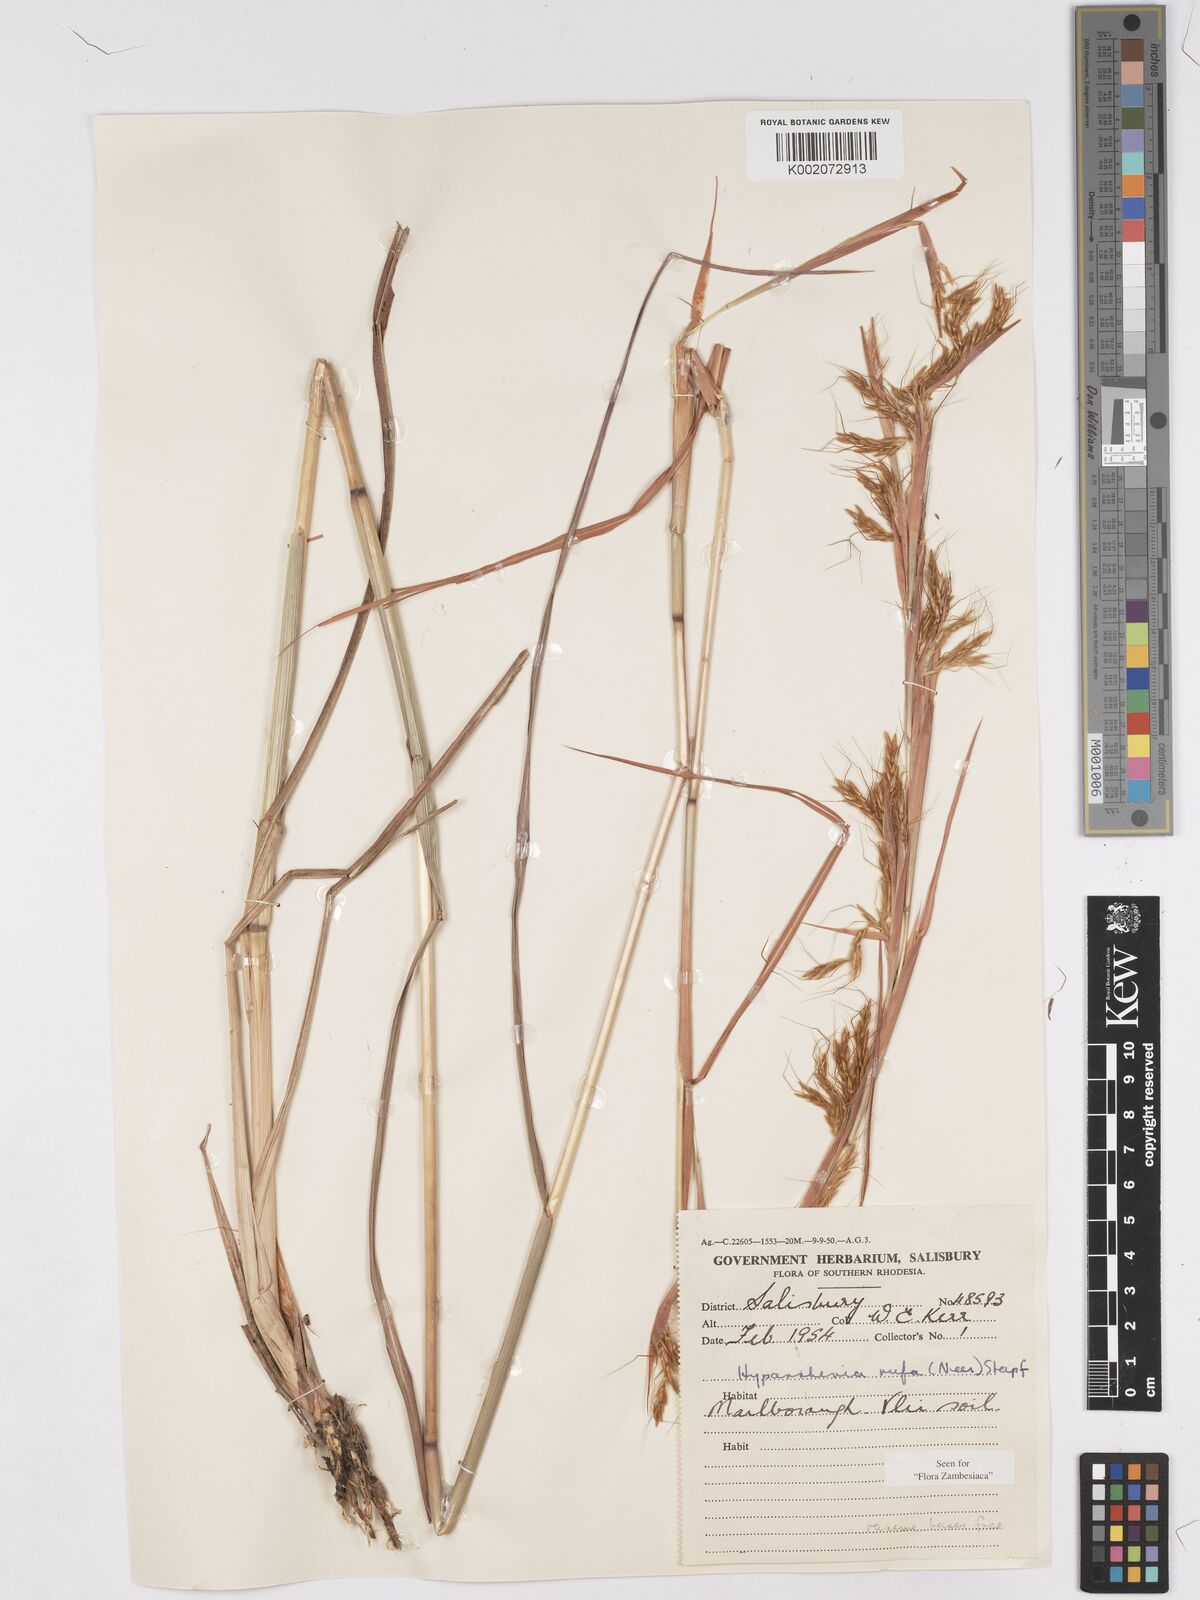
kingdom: Plantae
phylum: Tracheophyta
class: Liliopsida
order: Poales
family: Poaceae
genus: Hyparrhenia
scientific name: Hyparrhenia rufa
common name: Jaraguagrass
